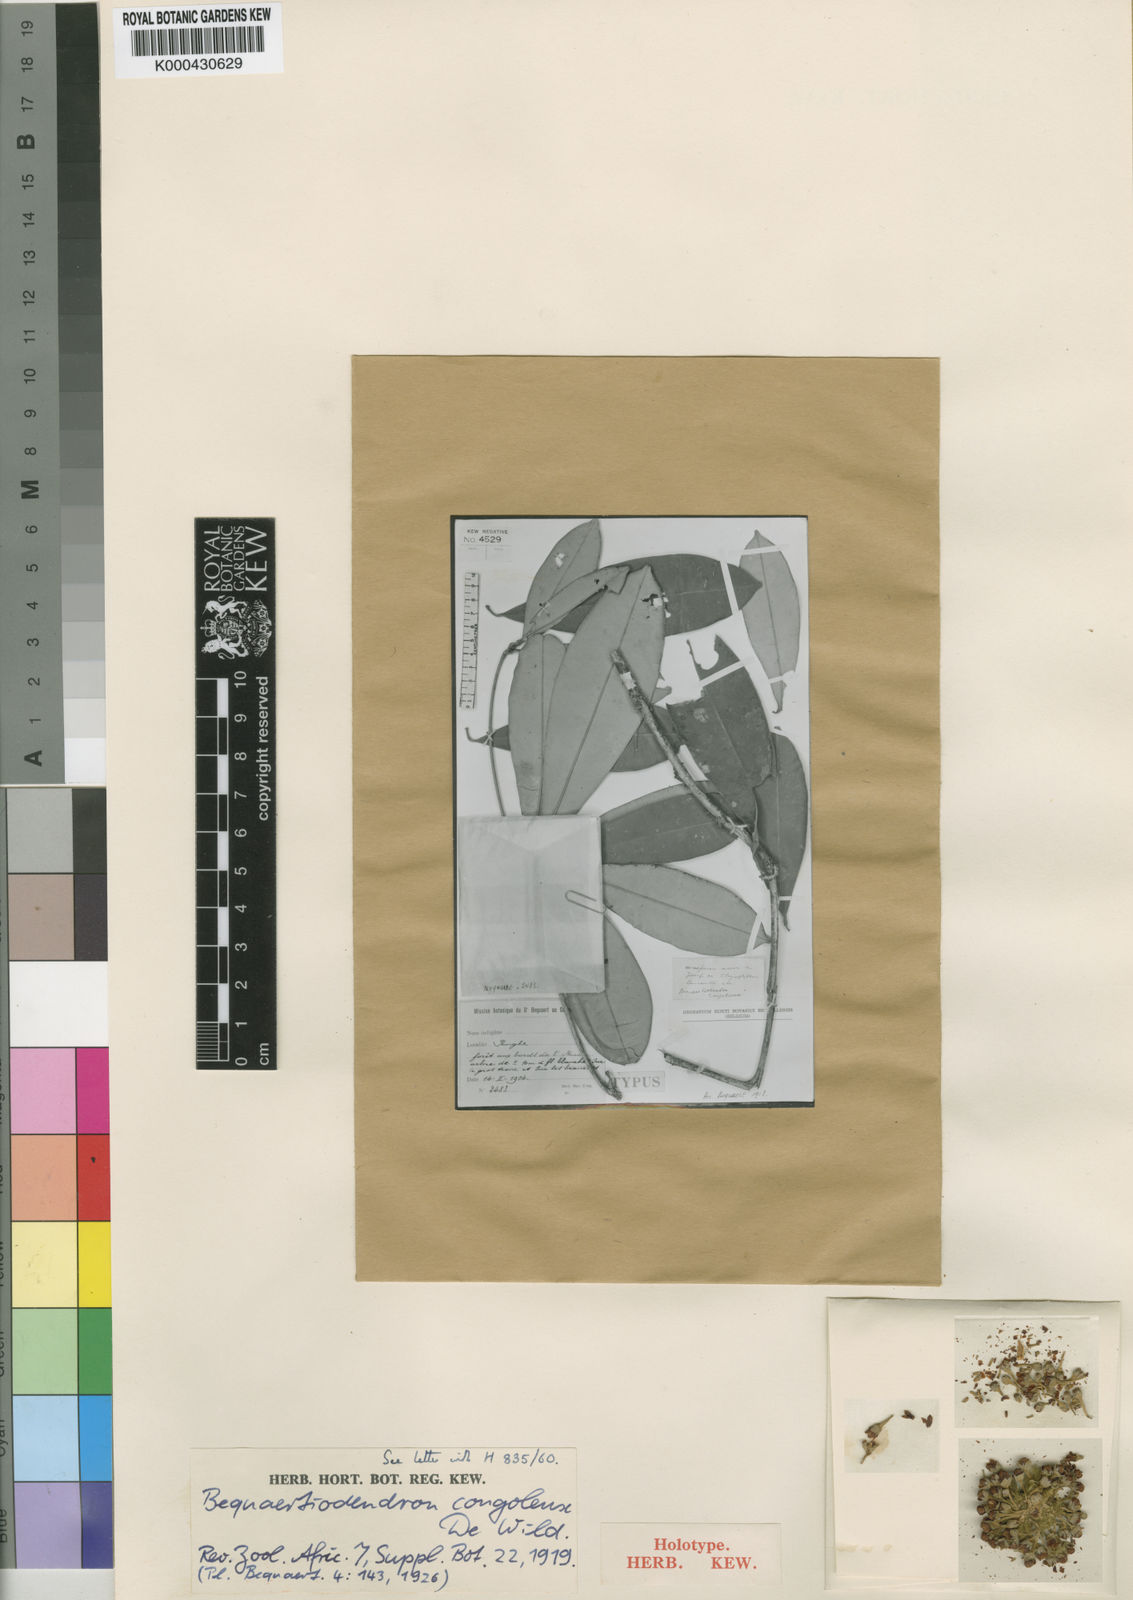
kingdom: Plantae
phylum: Tracheophyta
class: Magnoliopsida
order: Ericales
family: Sapotaceae
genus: Englerophytum
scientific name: Englerophytum magalismontanum
